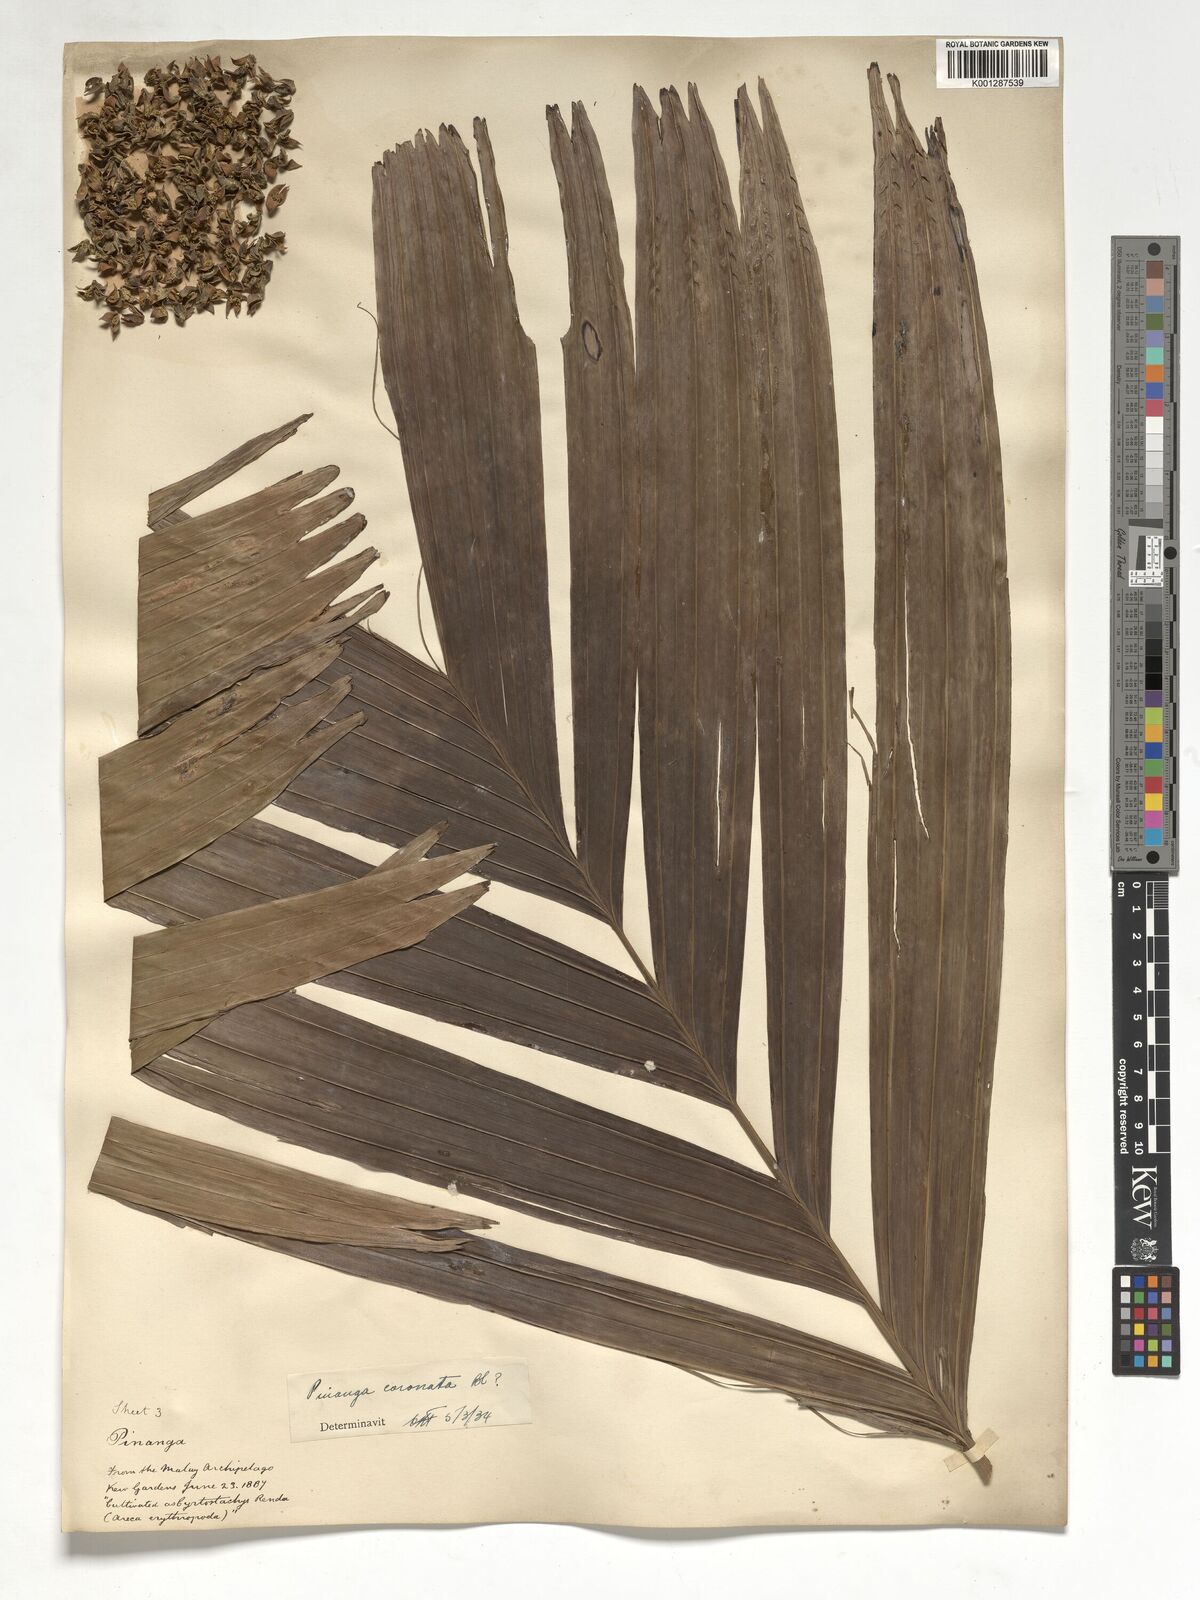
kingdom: Plantae
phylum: Tracheophyta
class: Liliopsida
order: Arecales
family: Arecaceae
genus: Pinanga
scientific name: Pinanga coronata
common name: Ivory cane palm
